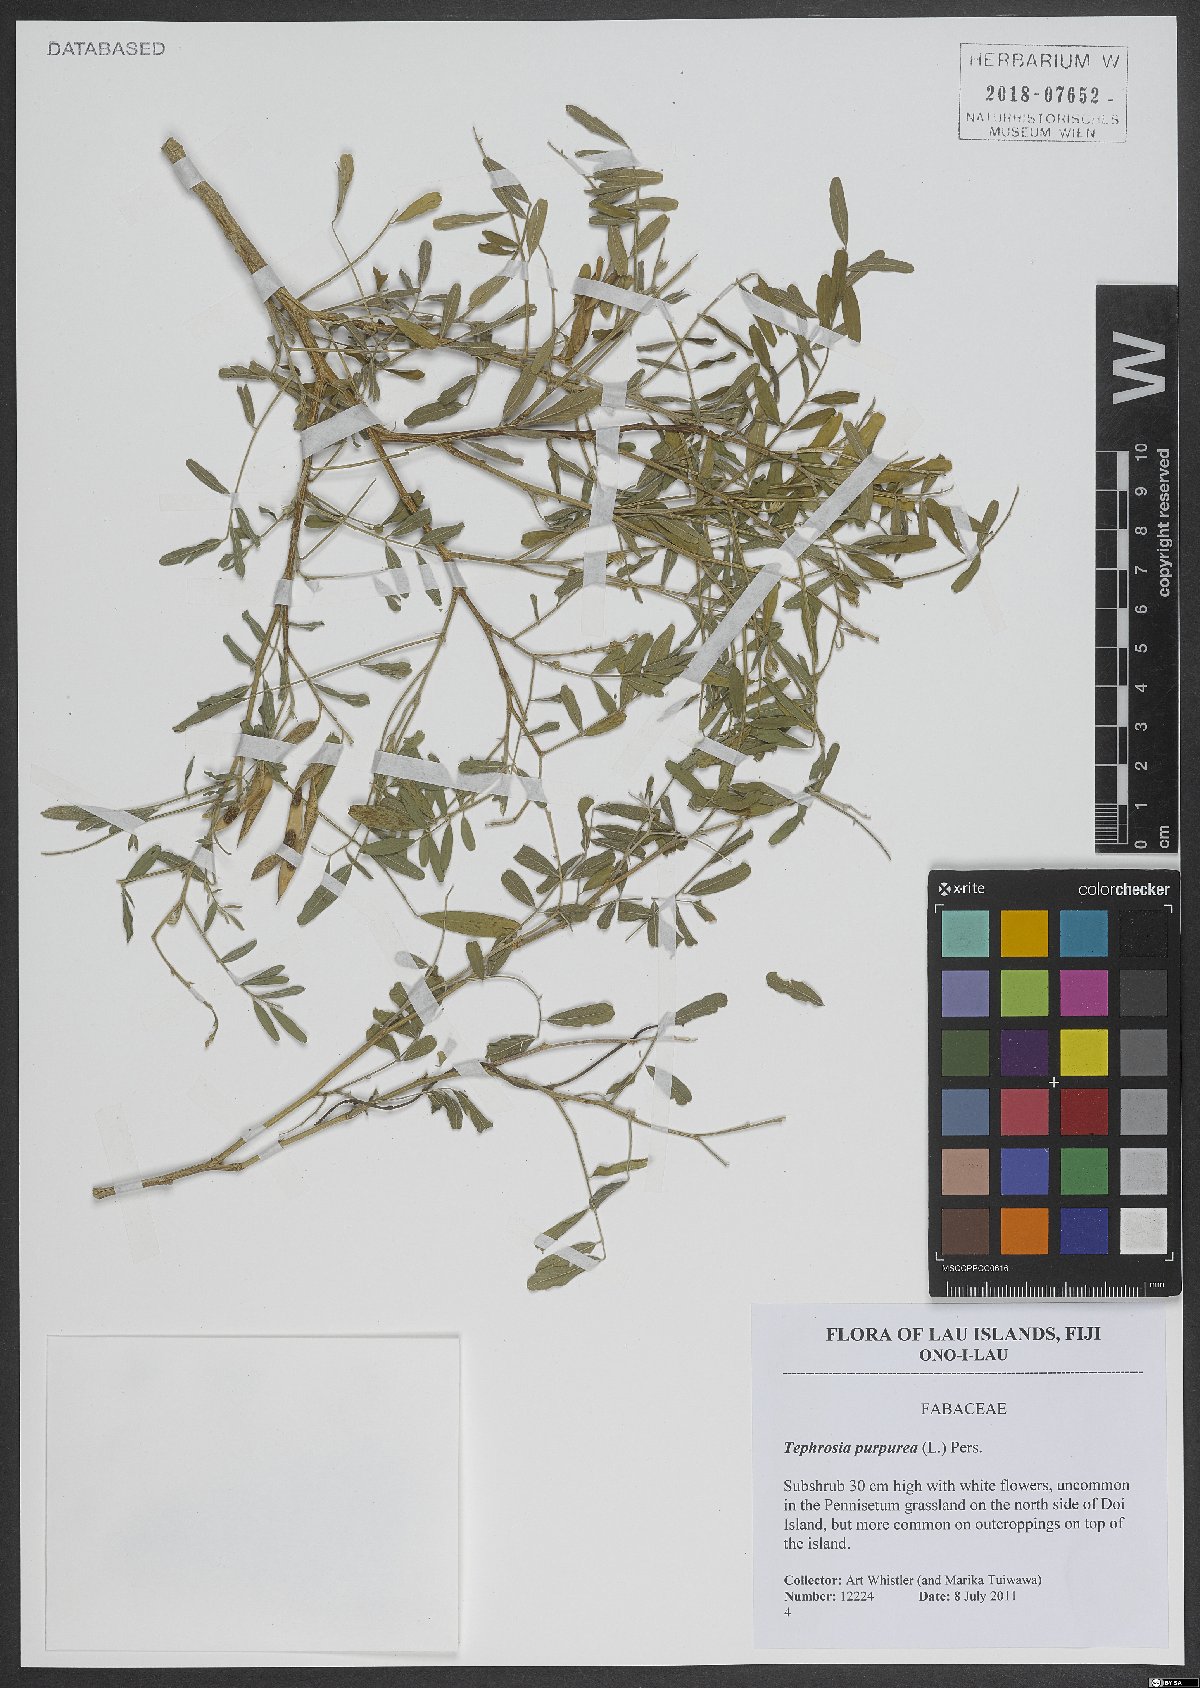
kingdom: Plantae
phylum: Tracheophyta
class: Magnoliopsida
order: Fabales
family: Fabaceae
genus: Tephrosia
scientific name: Tephrosia purpurea
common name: Fishpoison
